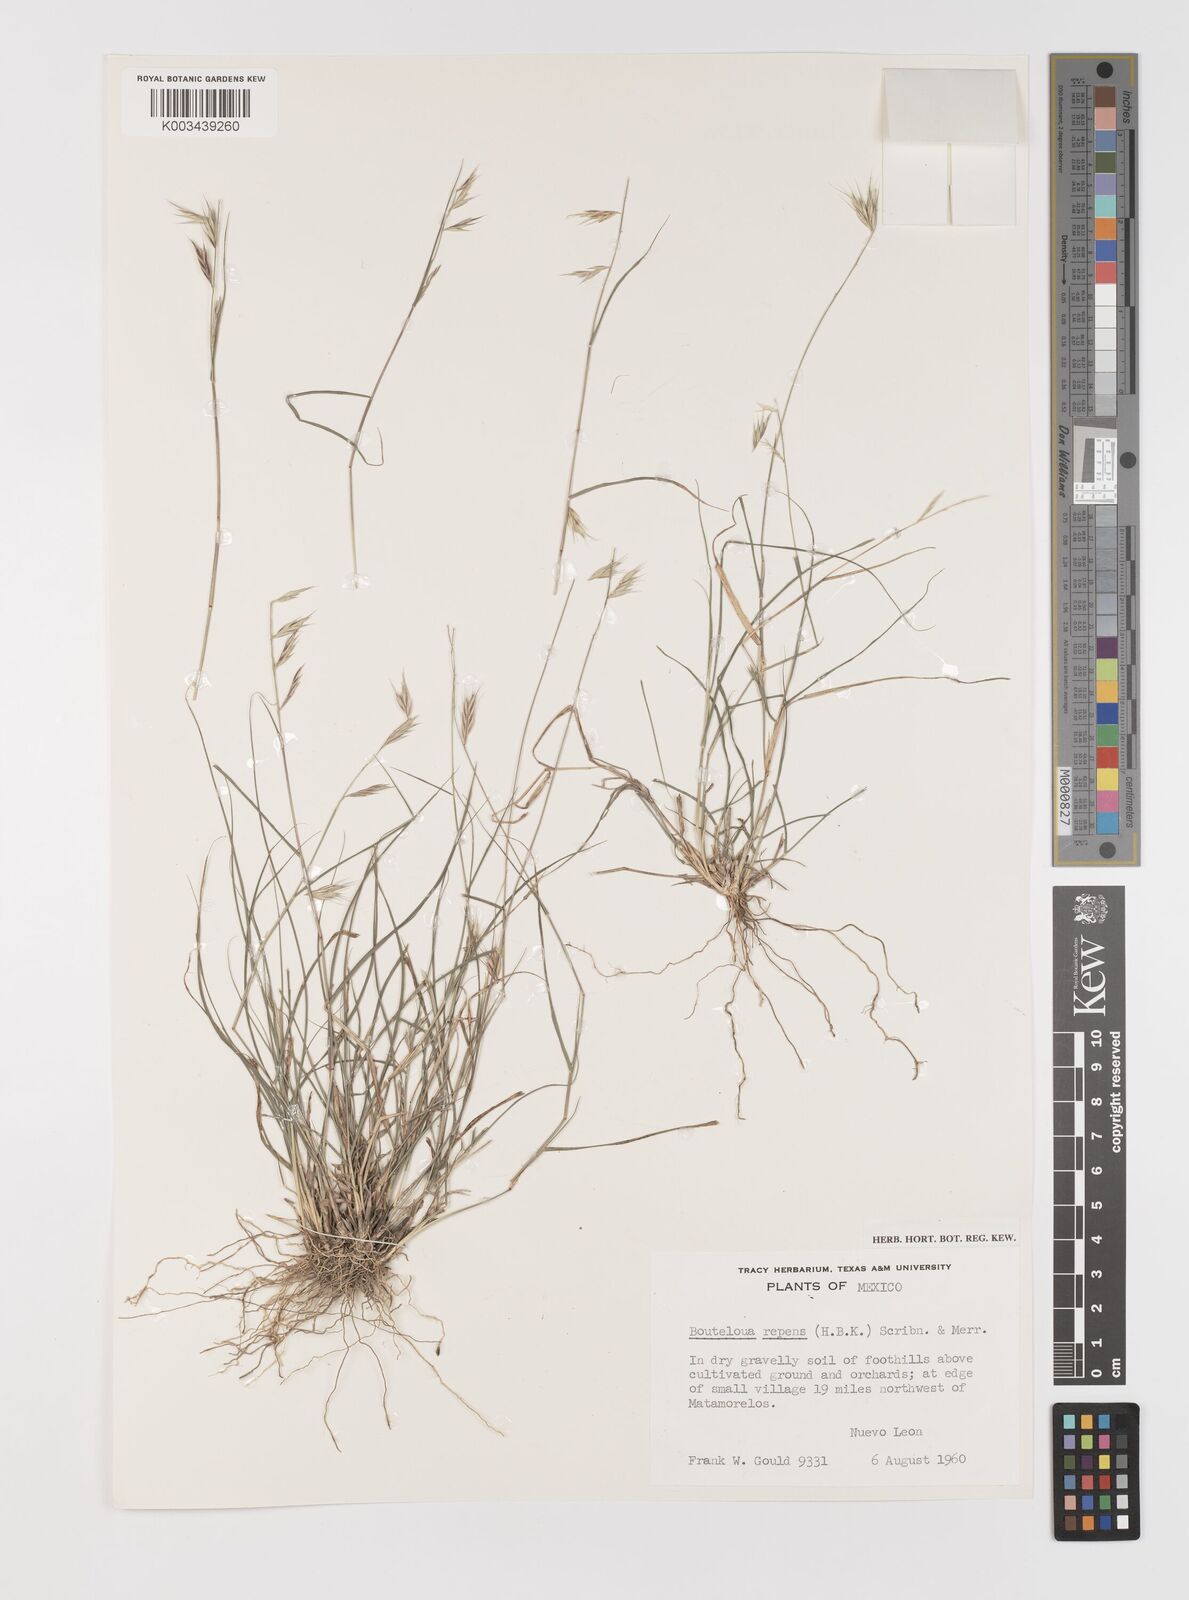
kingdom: Plantae
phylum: Tracheophyta
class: Liliopsida
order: Poales
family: Poaceae
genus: Bouteloua
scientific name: Bouteloua repens
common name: Slender grama
